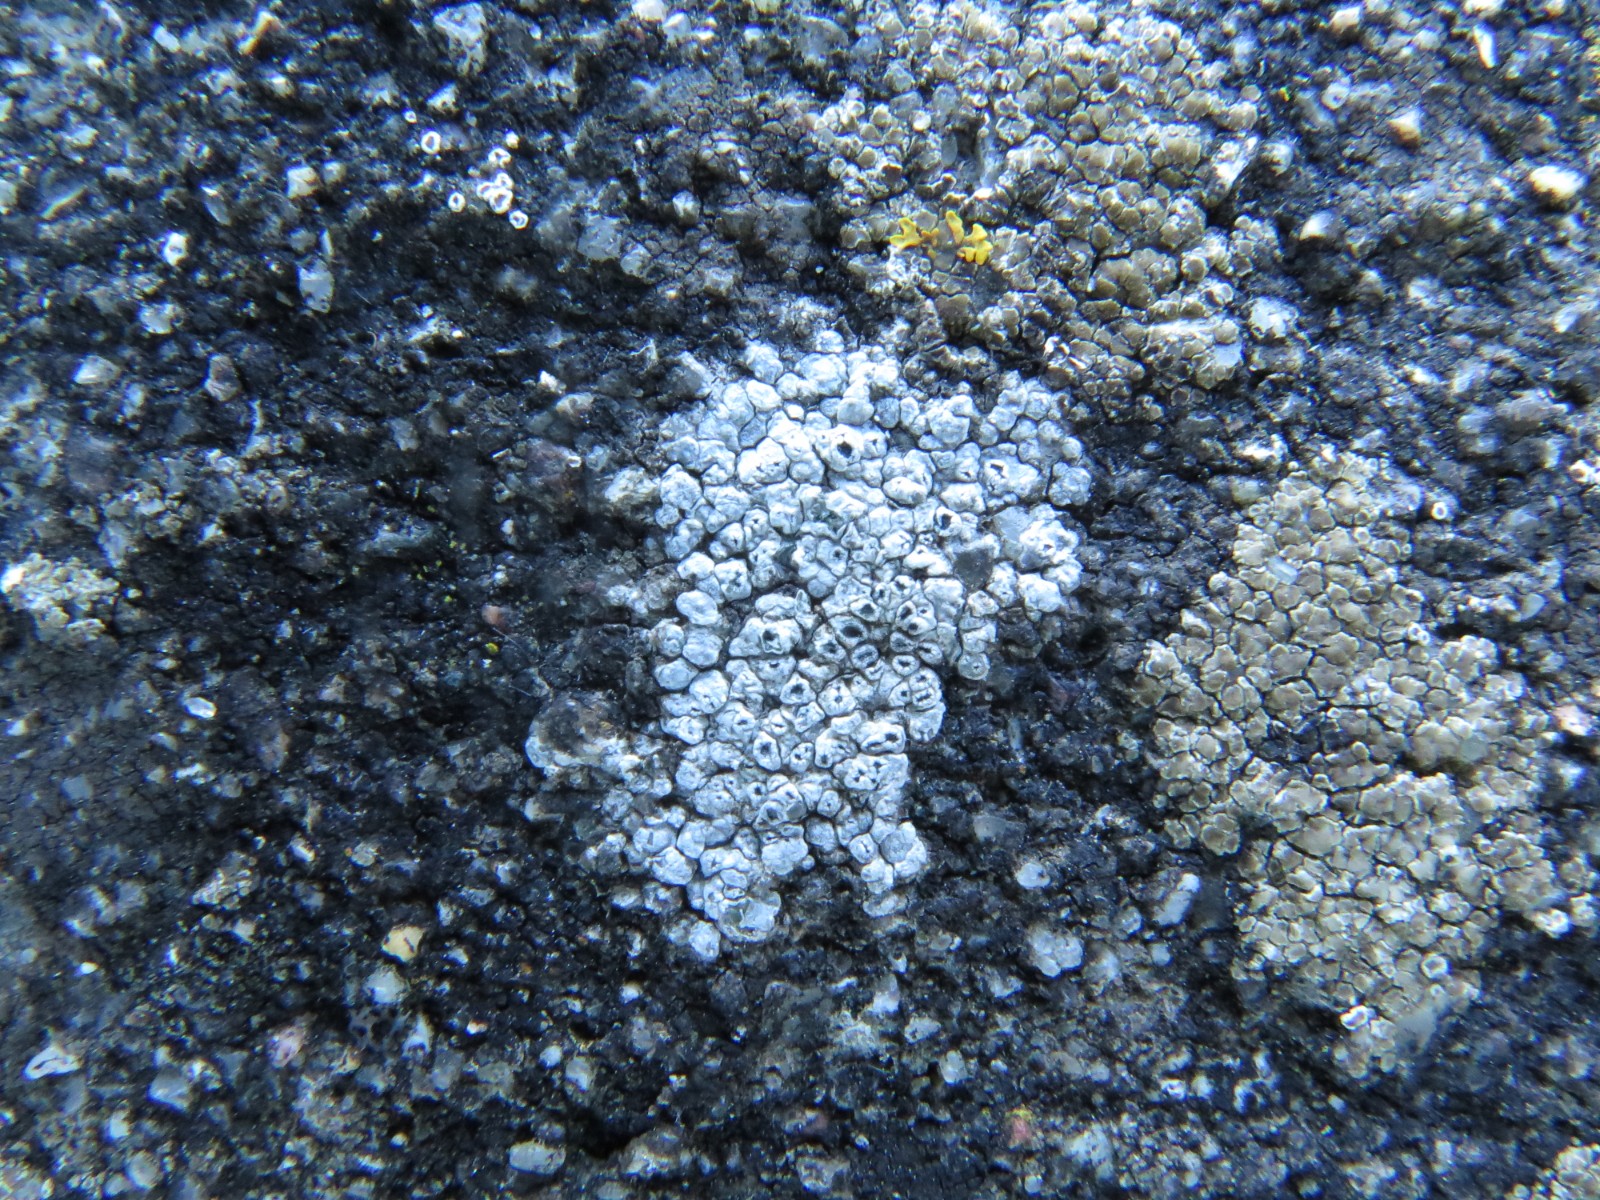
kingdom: Fungi
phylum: Ascomycota
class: Lecanoromycetes
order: Pertusariales
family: Megasporaceae
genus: Circinaria
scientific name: Circinaria contorta
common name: indviklet hulskivelav
